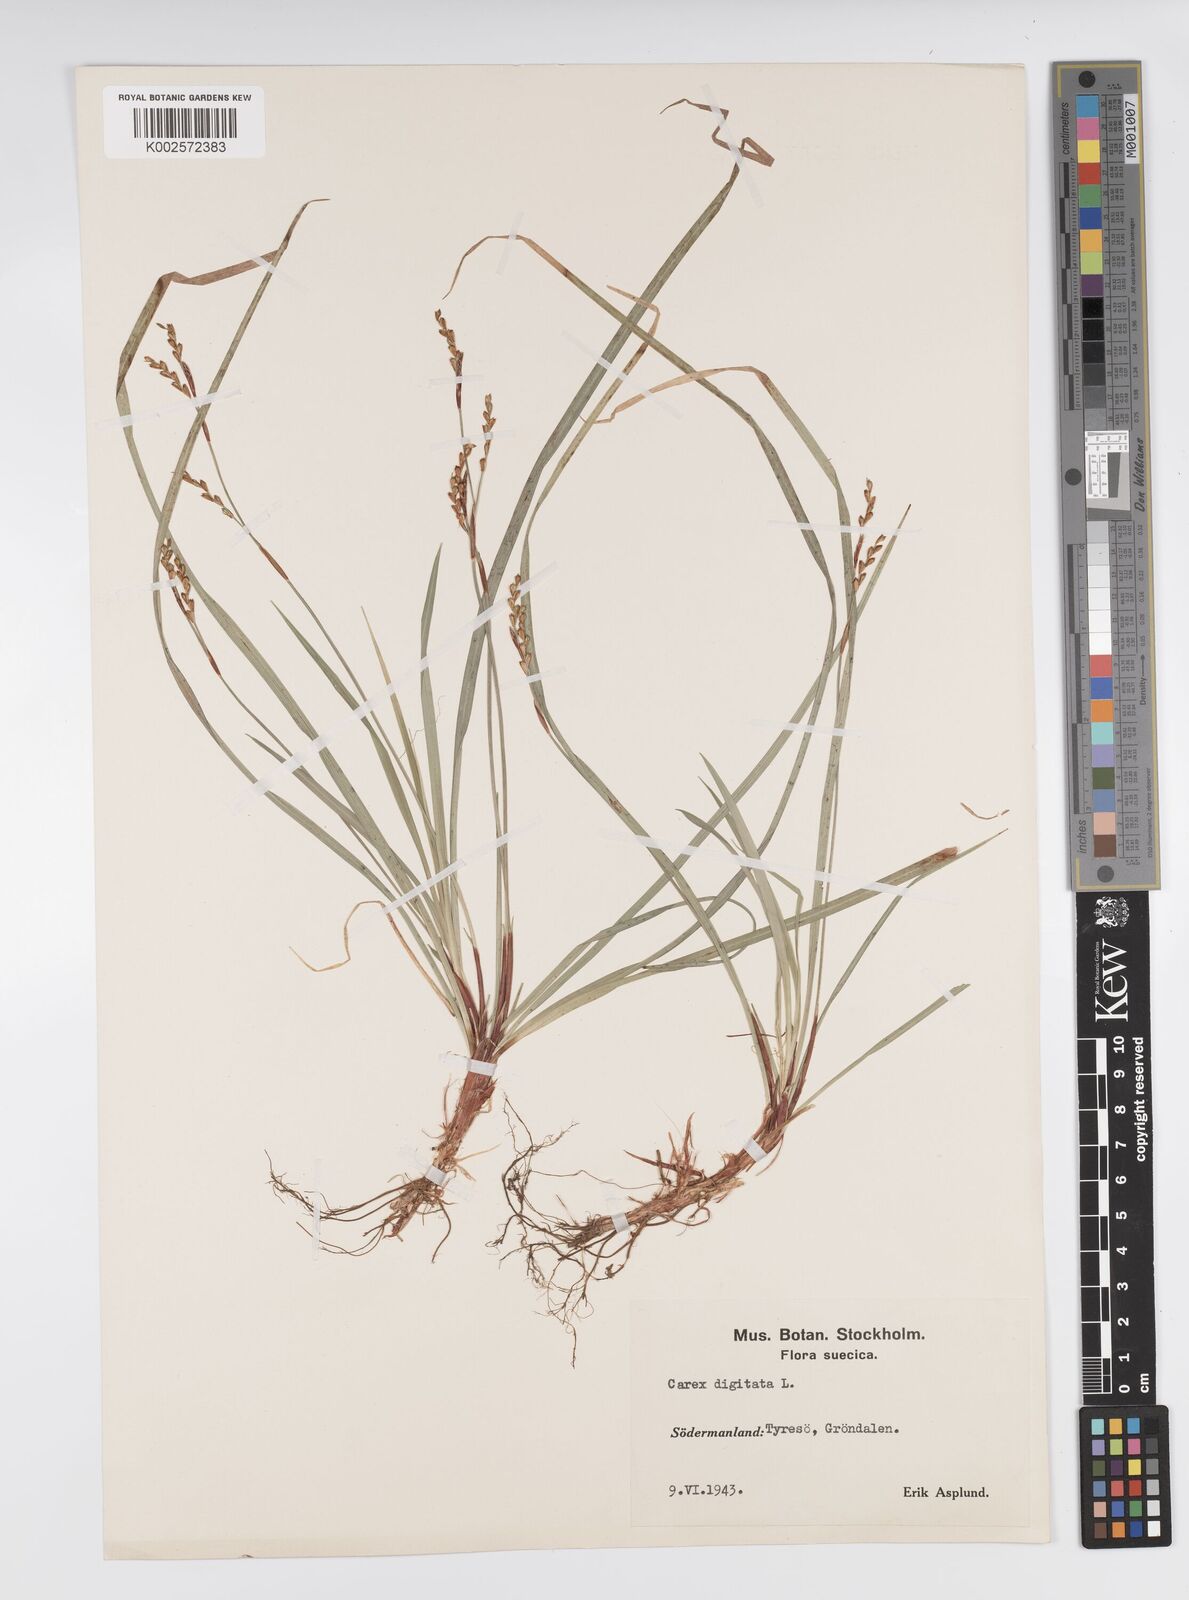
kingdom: Plantae
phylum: Tracheophyta
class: Liliopsida
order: Poales
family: Cyperaceae
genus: Carex
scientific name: Carex digitata
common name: Fingered sedge
